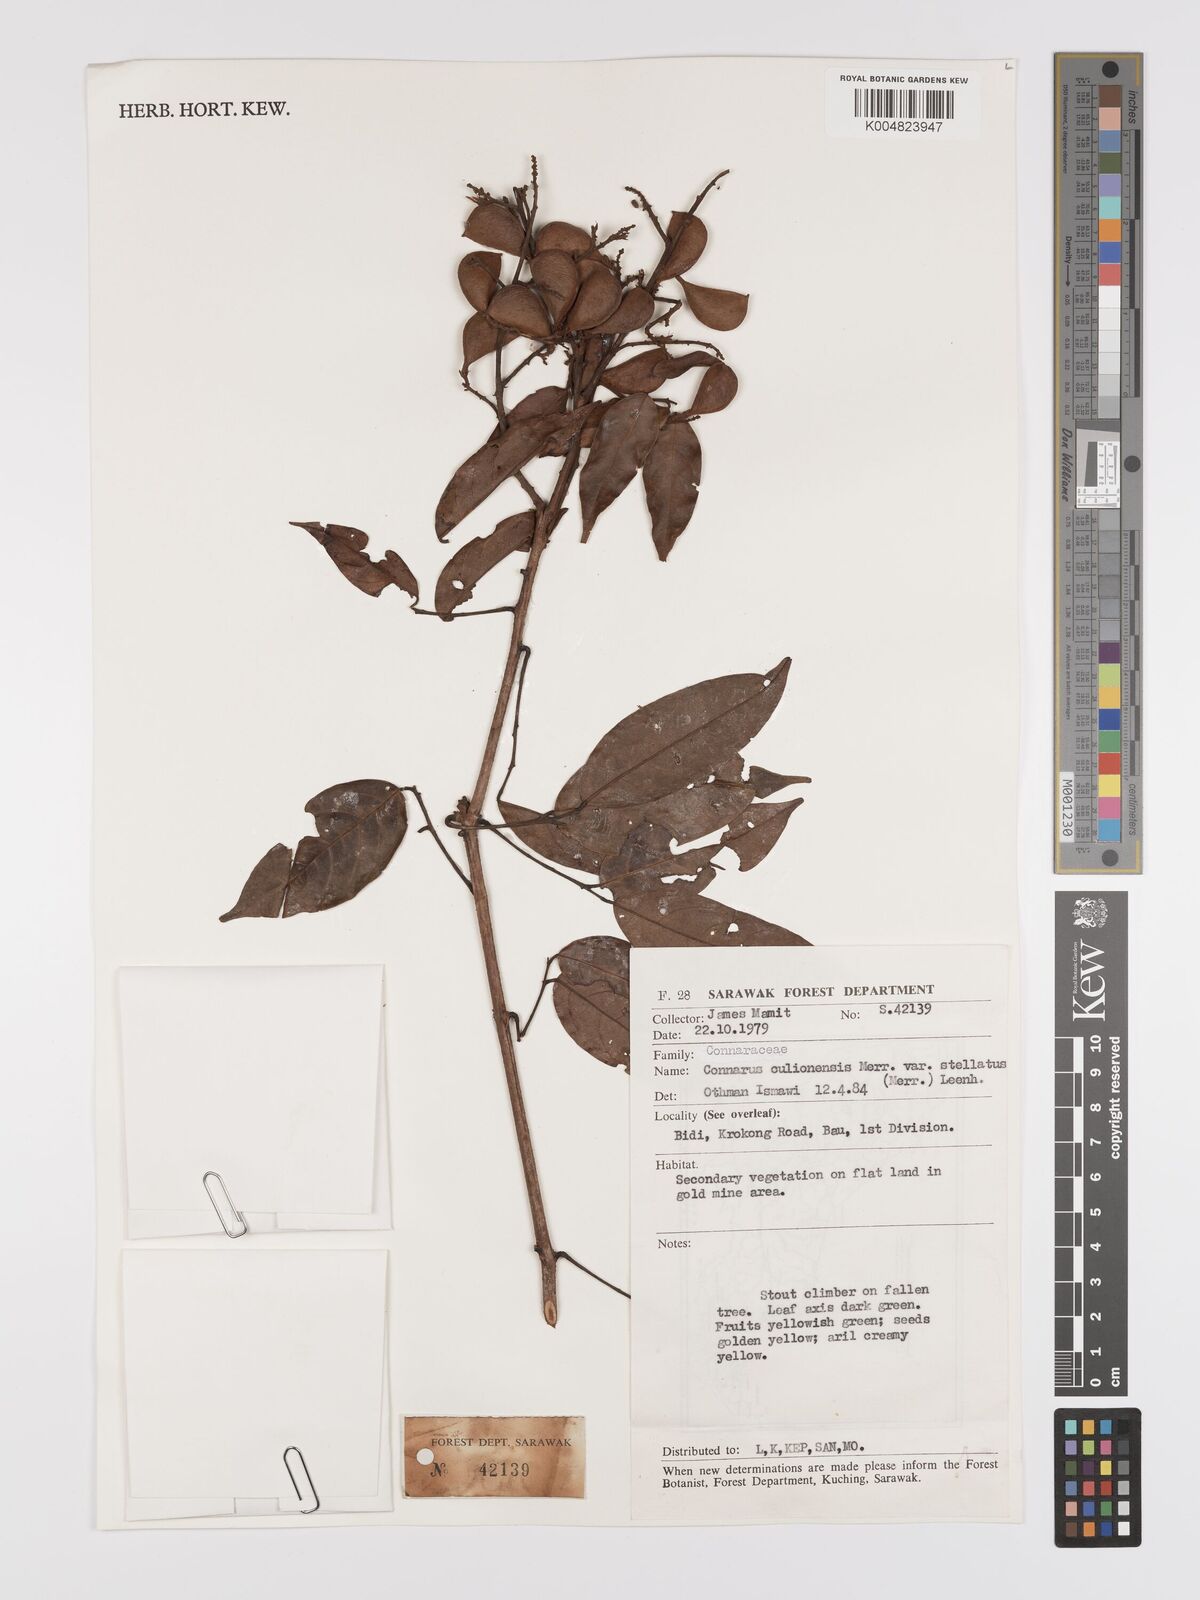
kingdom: Plantae
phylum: Tracheophyta
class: Magnoliopsida
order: Oxalidales
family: Connaraceae
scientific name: Connaraceae
